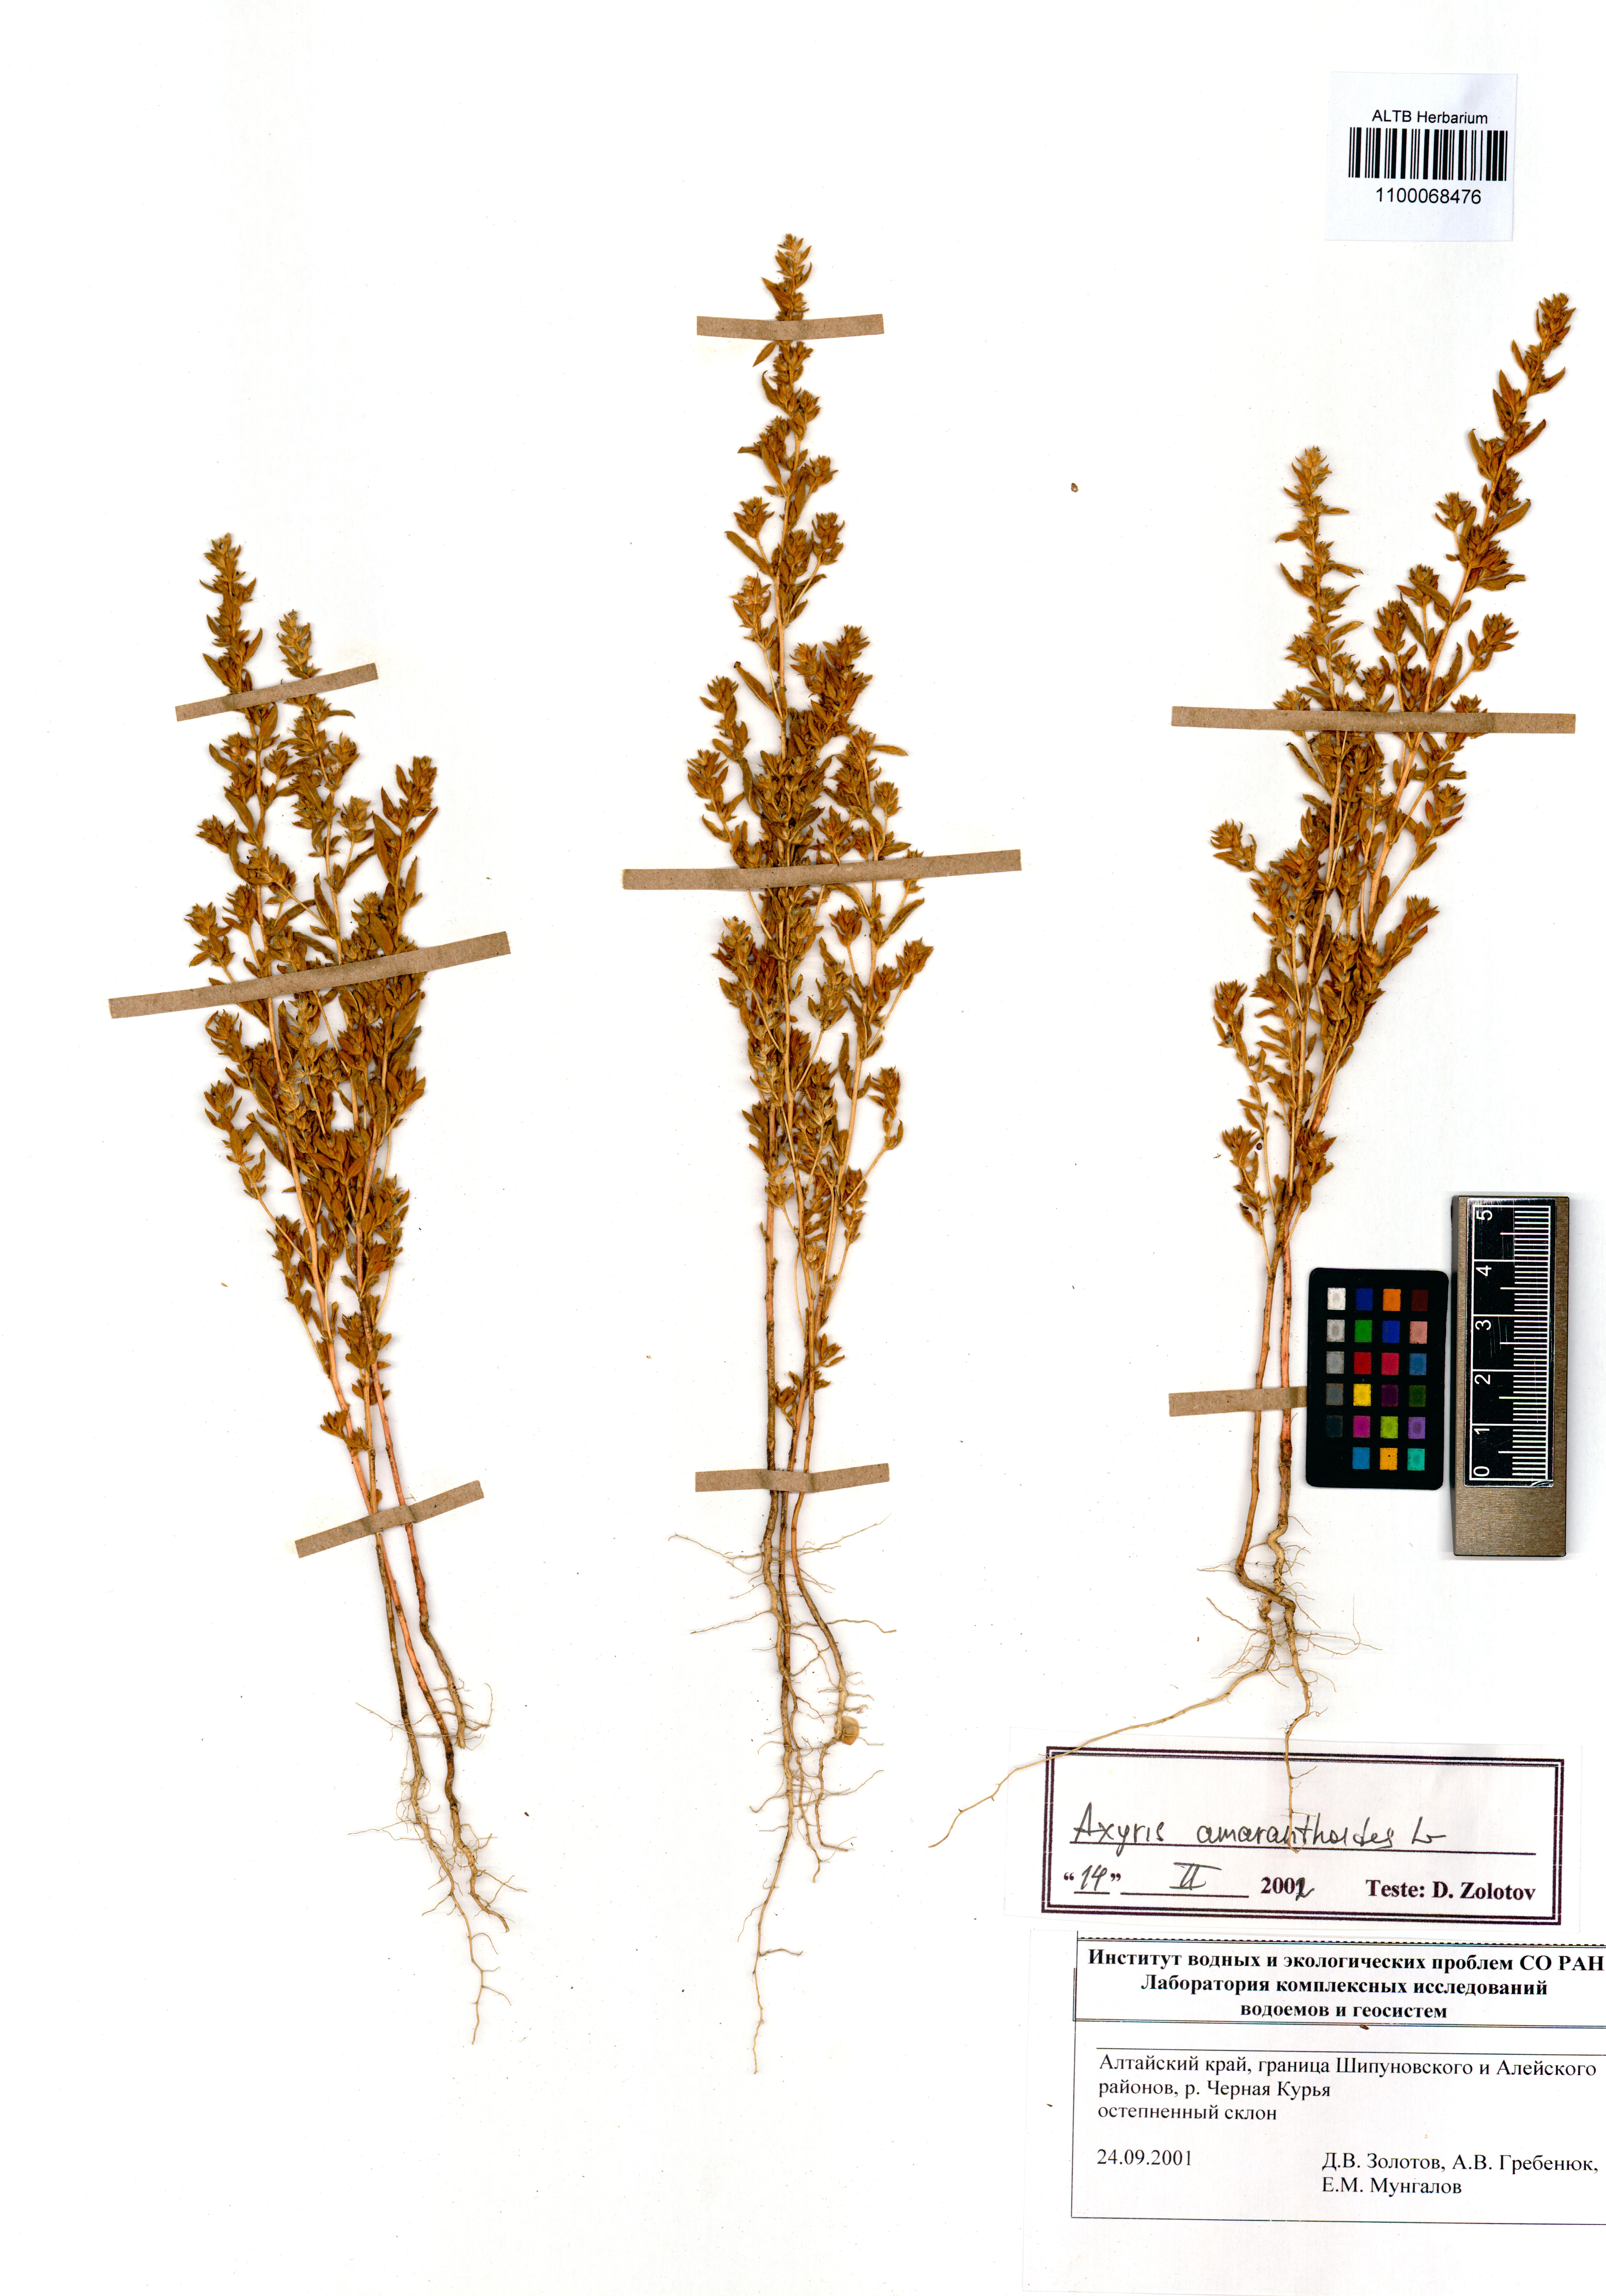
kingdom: Plantae
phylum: Tracheophyta
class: Magnoliopsida
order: Caryophyllales
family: Amaranthaceae
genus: Axyris
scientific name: Axyris amaranthoides
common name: Russian pigweed
